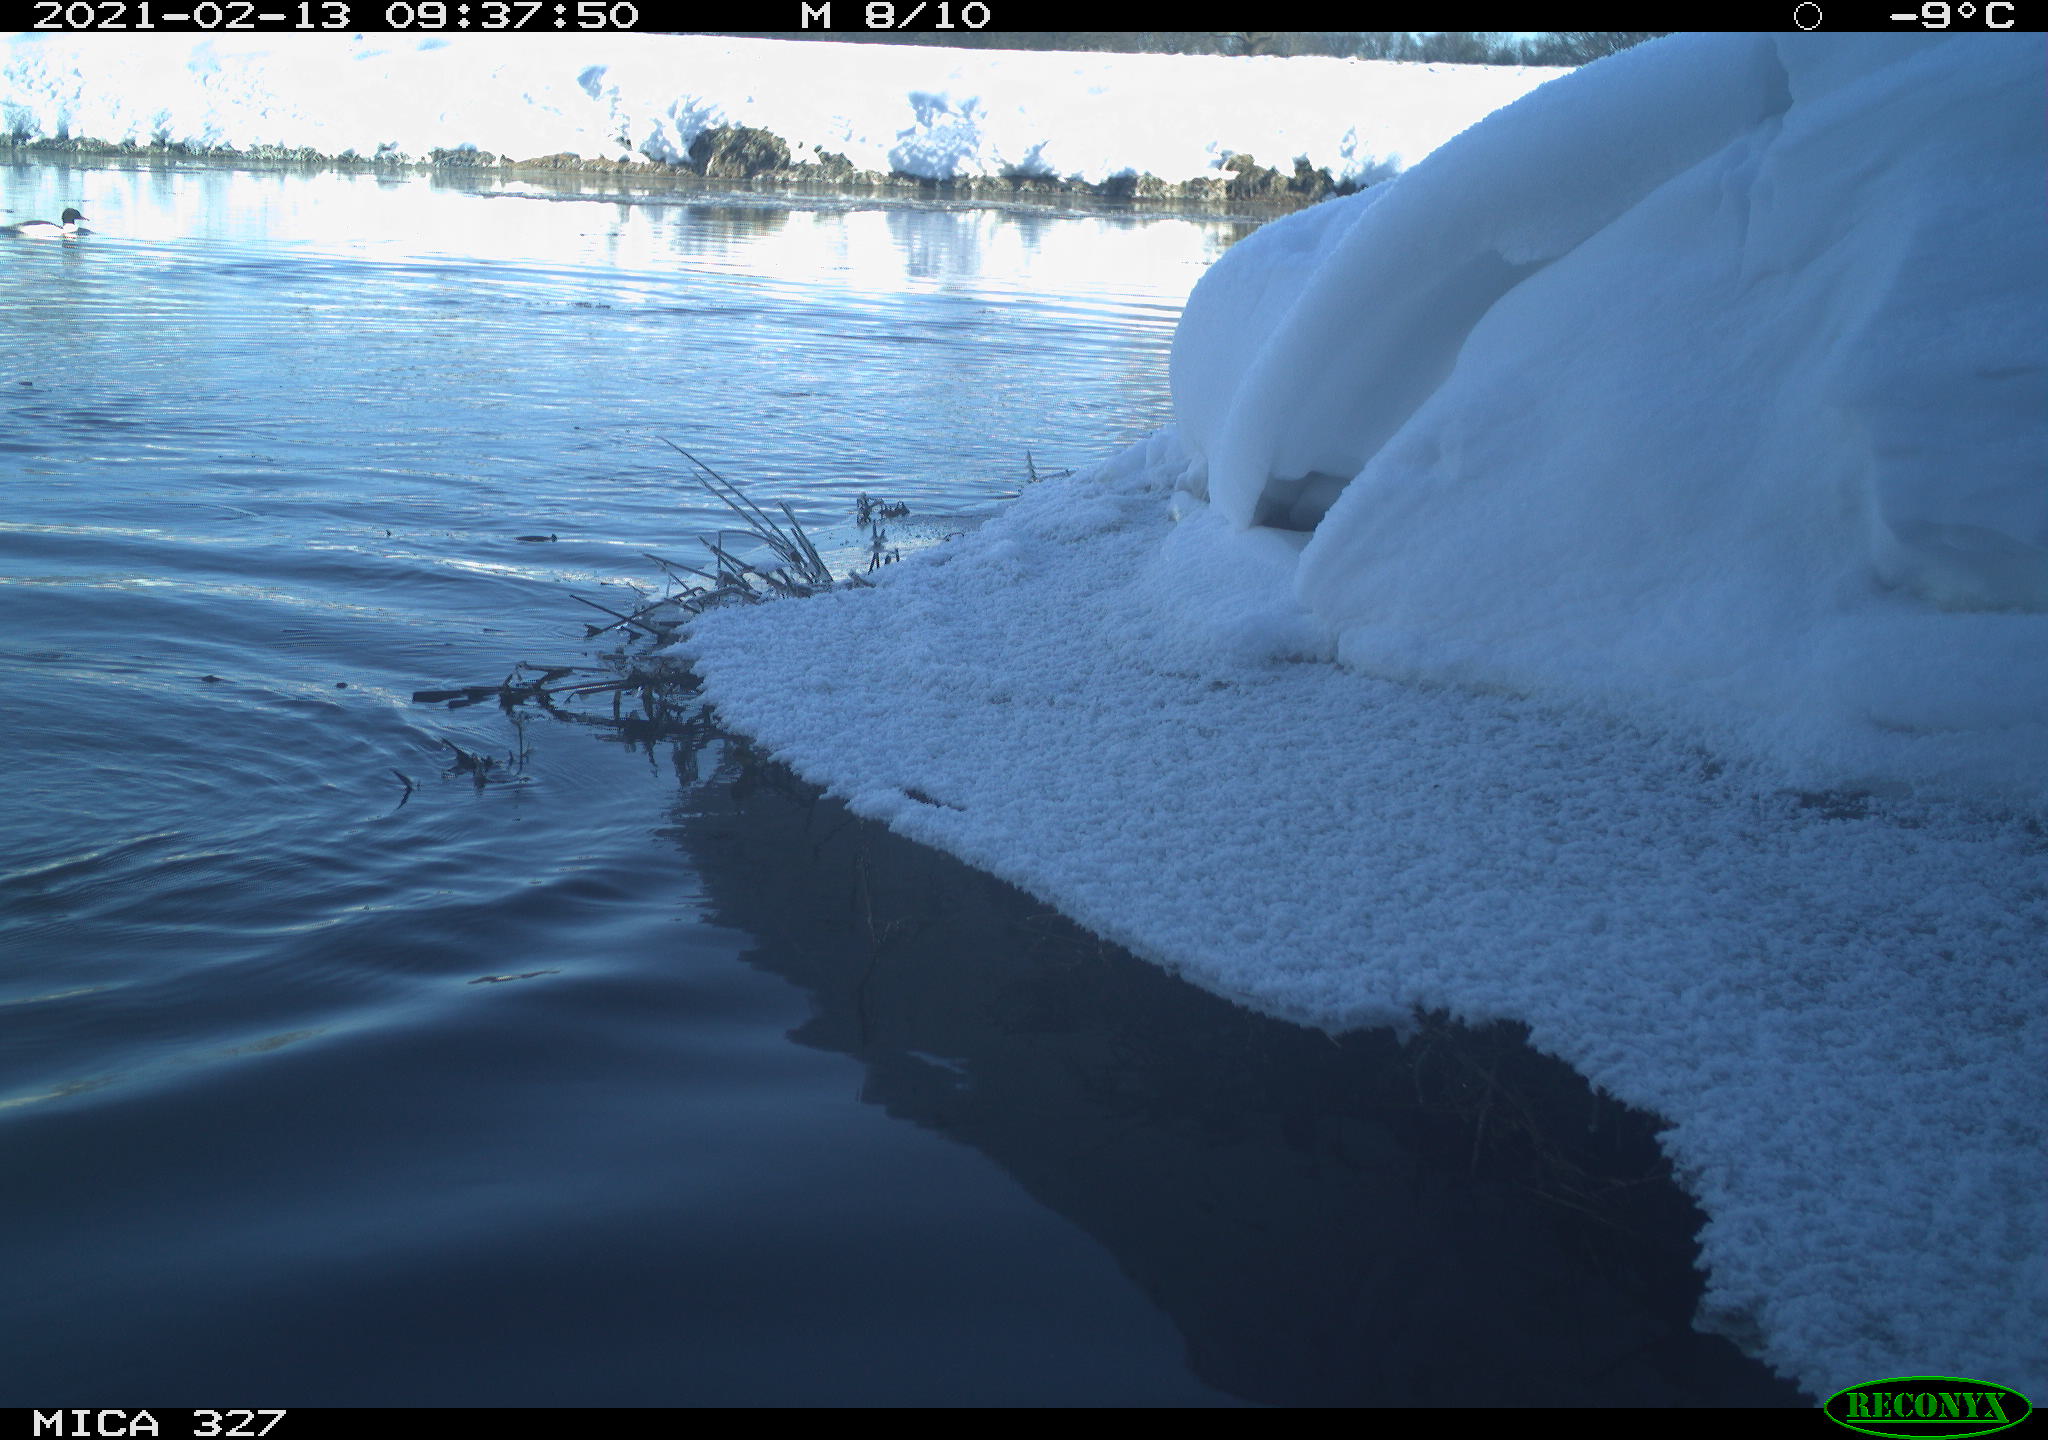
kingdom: Animalia
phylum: Chordata
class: Aves
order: Suliformes
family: Phalacrocoracidae
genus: Phalacrocorax
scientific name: Phalacrocorax carbo
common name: Great cormorant
